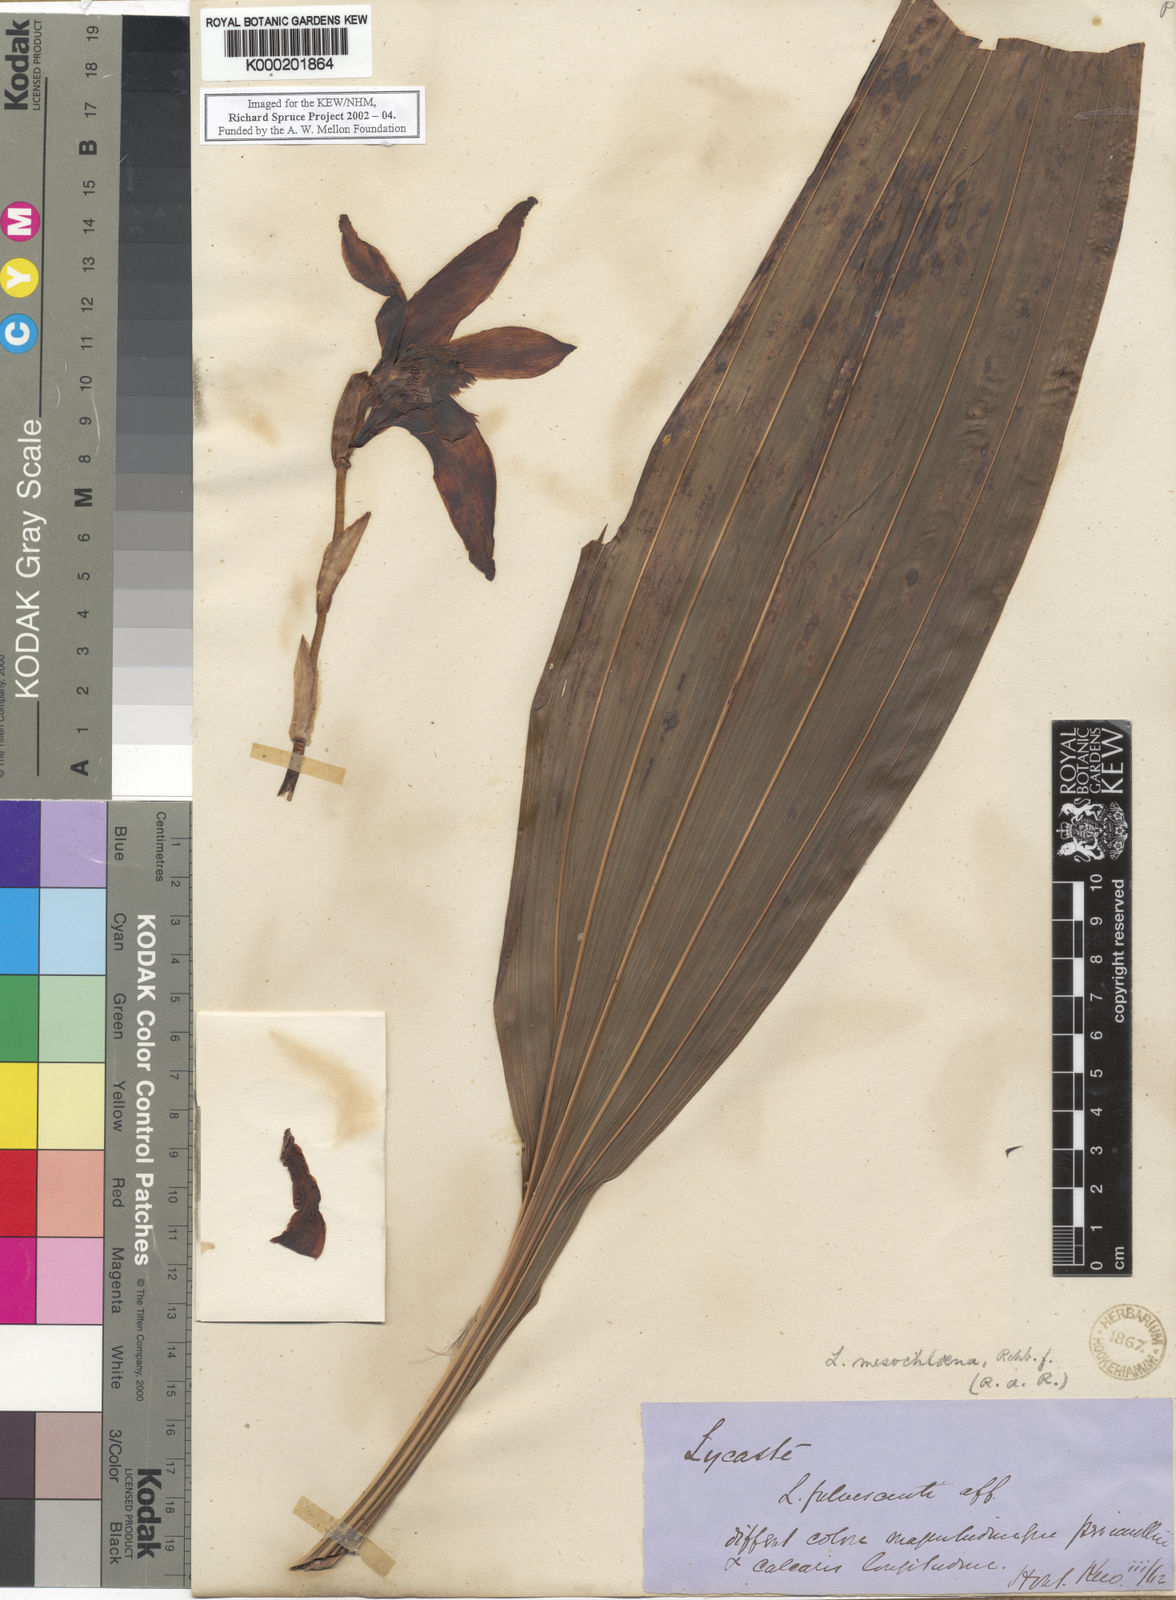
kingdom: Plantae
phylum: Tracheophyta
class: Liliopsida
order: Asparagales
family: Orchidaceae
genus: Ida
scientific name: Ida reichenbachii
